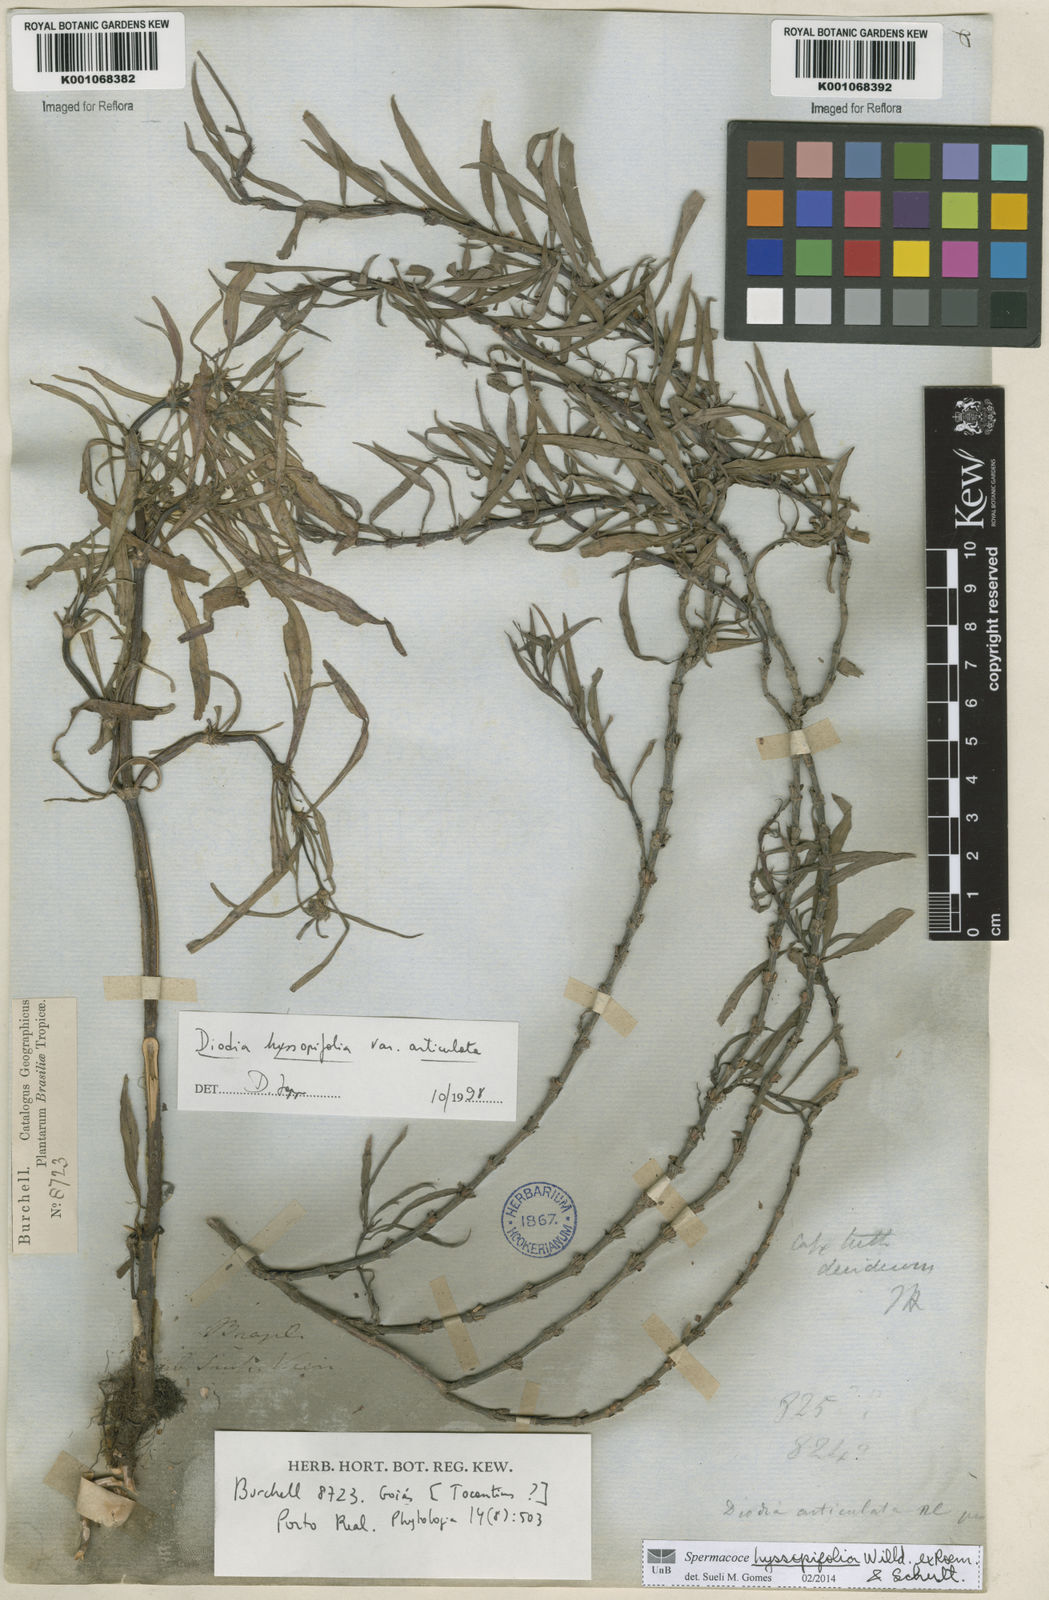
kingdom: Plantae
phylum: Tracheophyta
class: Magnoliopsida
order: Gentianales
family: Rubiaceae
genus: Spermacoce
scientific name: Spermacoce
